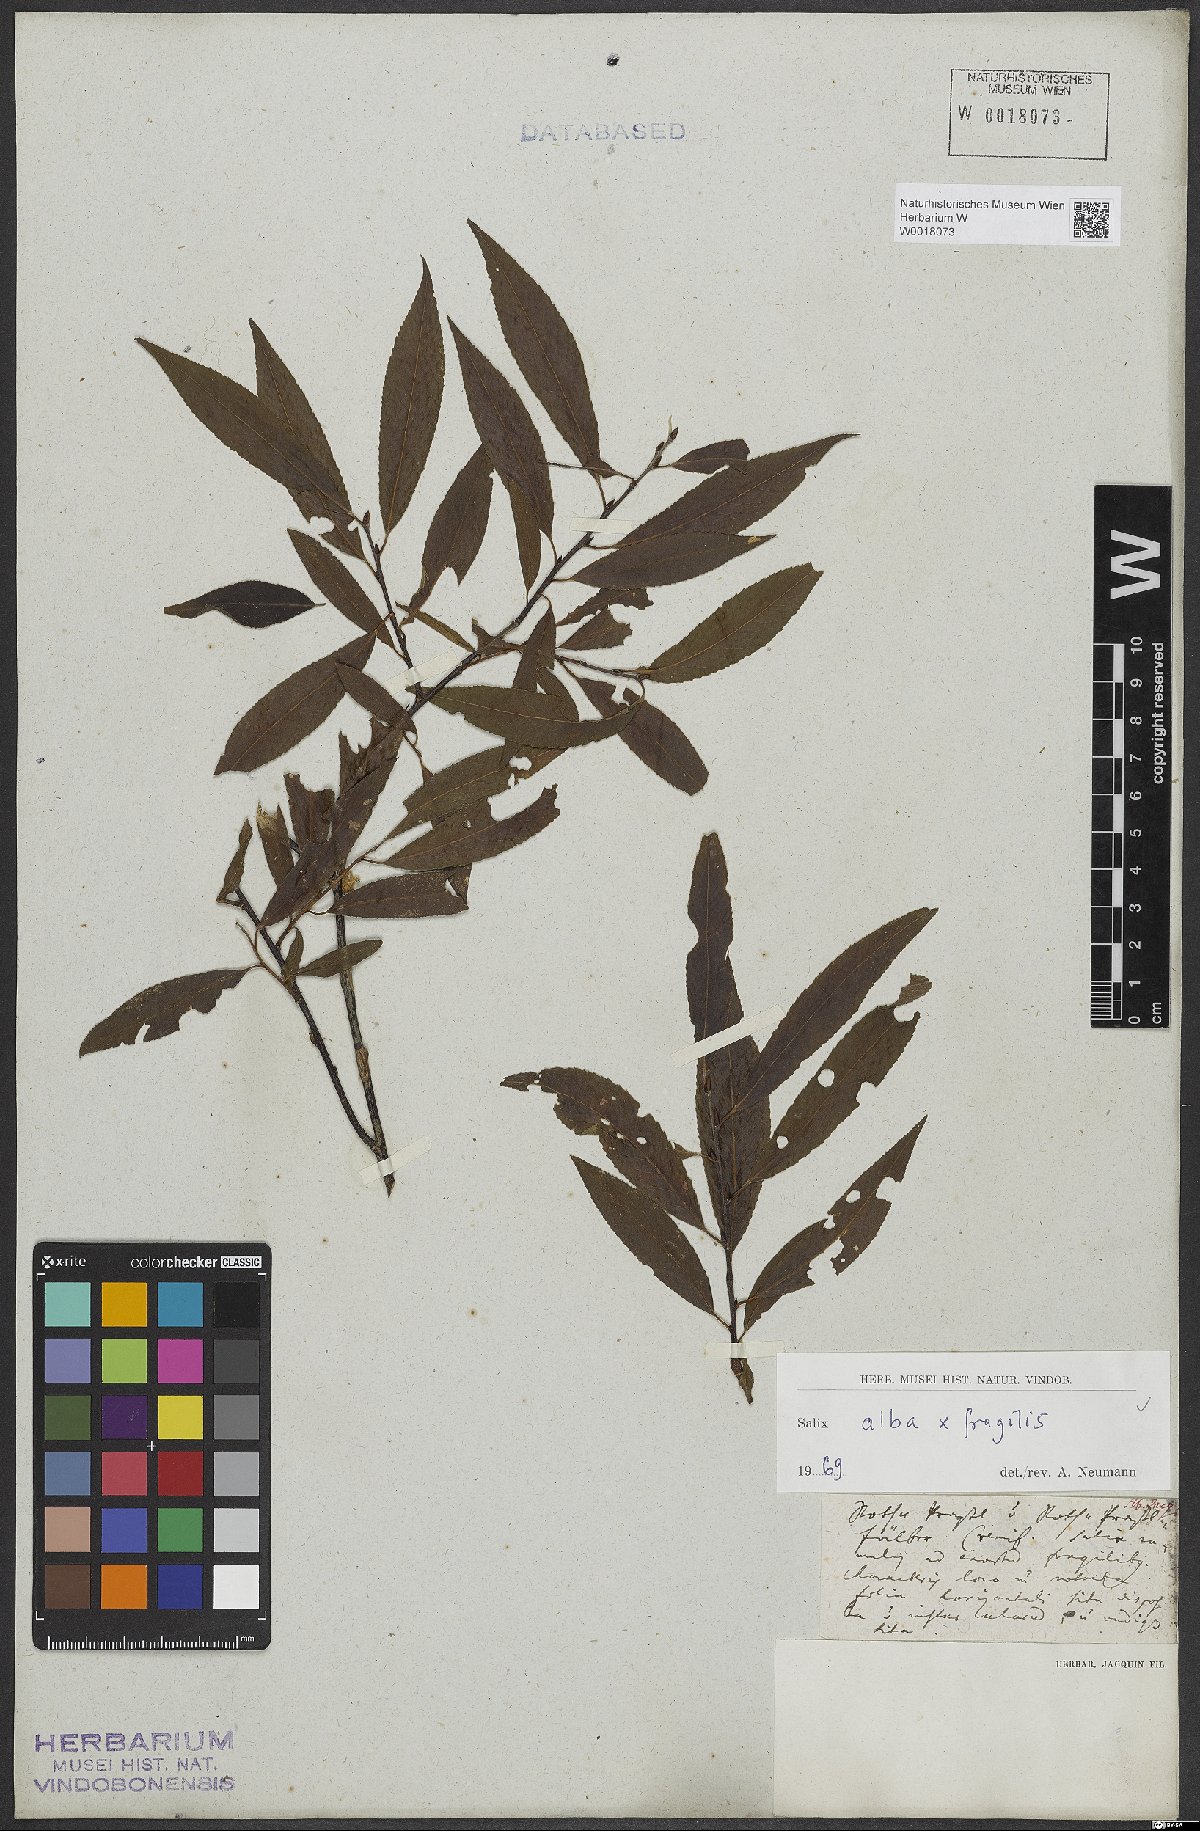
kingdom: Plantae
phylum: Tracheophyta
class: Magnoliopsida
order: Malpighiales
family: Salicaceae
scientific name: Salicaceae
